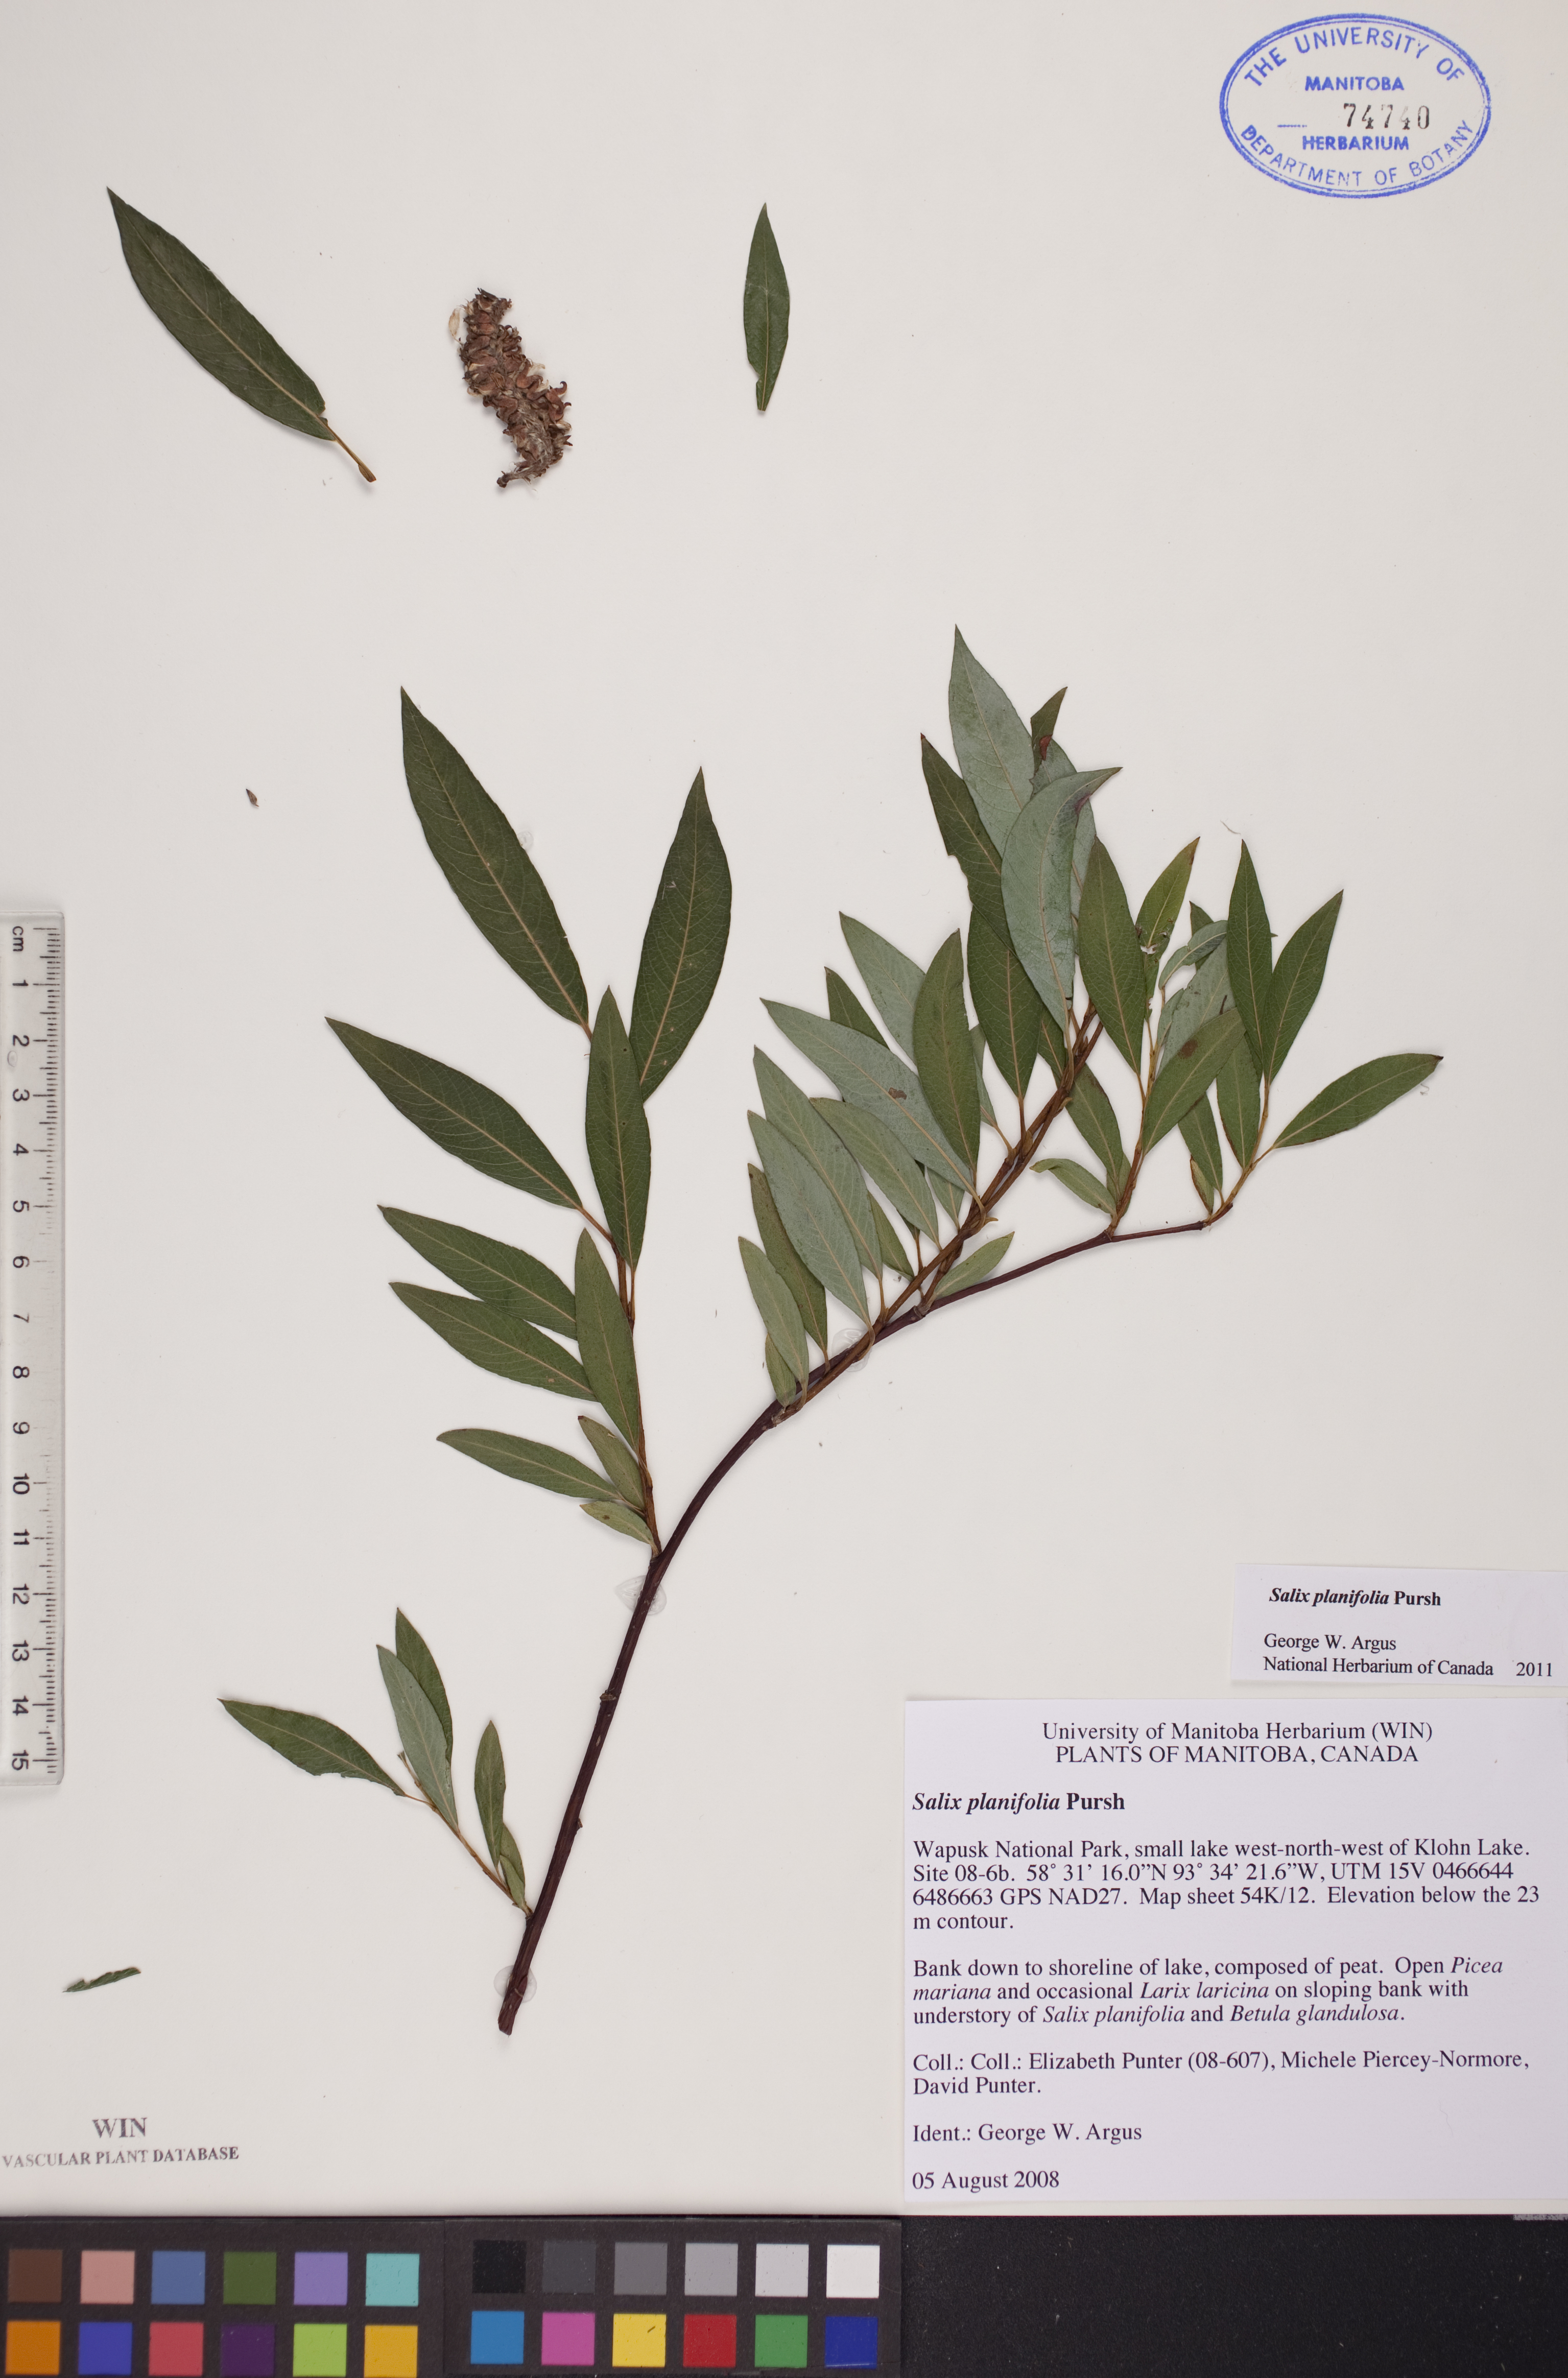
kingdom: Plantae
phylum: Tracheophyta
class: Magnoliopsida
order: Malpighiales
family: Salicaceae
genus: Salix
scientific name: Salix planifolia
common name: Mountain willow
